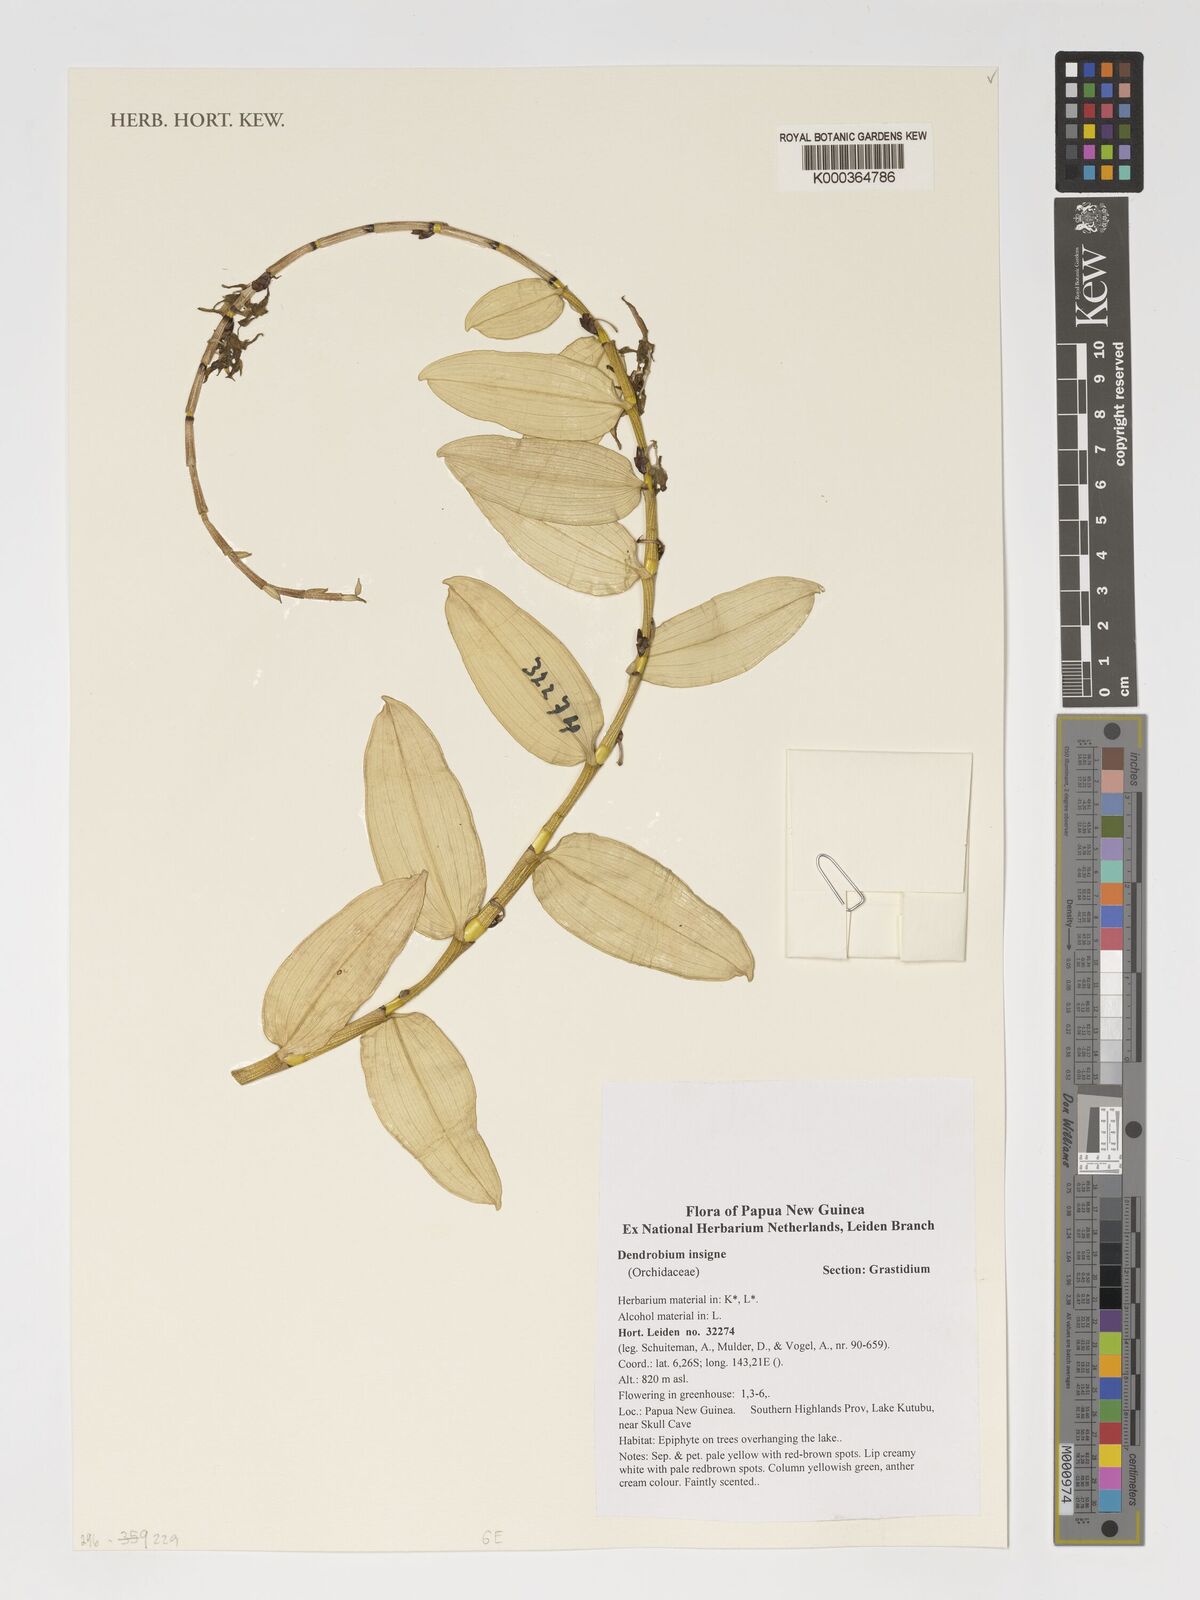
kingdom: Plantae
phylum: Tracheophyta
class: Liliopsida
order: Asparagales
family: Orchidaceae
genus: Dendrobium
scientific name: Dendrobium insigne
